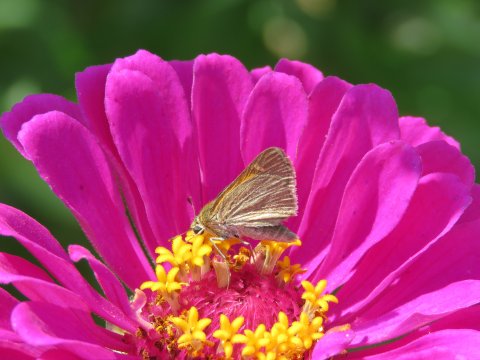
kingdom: Animalia
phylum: Arthropoda
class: Insecta
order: Lepidoptera
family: Hesperiidae
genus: Atalopedes
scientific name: Atalopedes campestris
